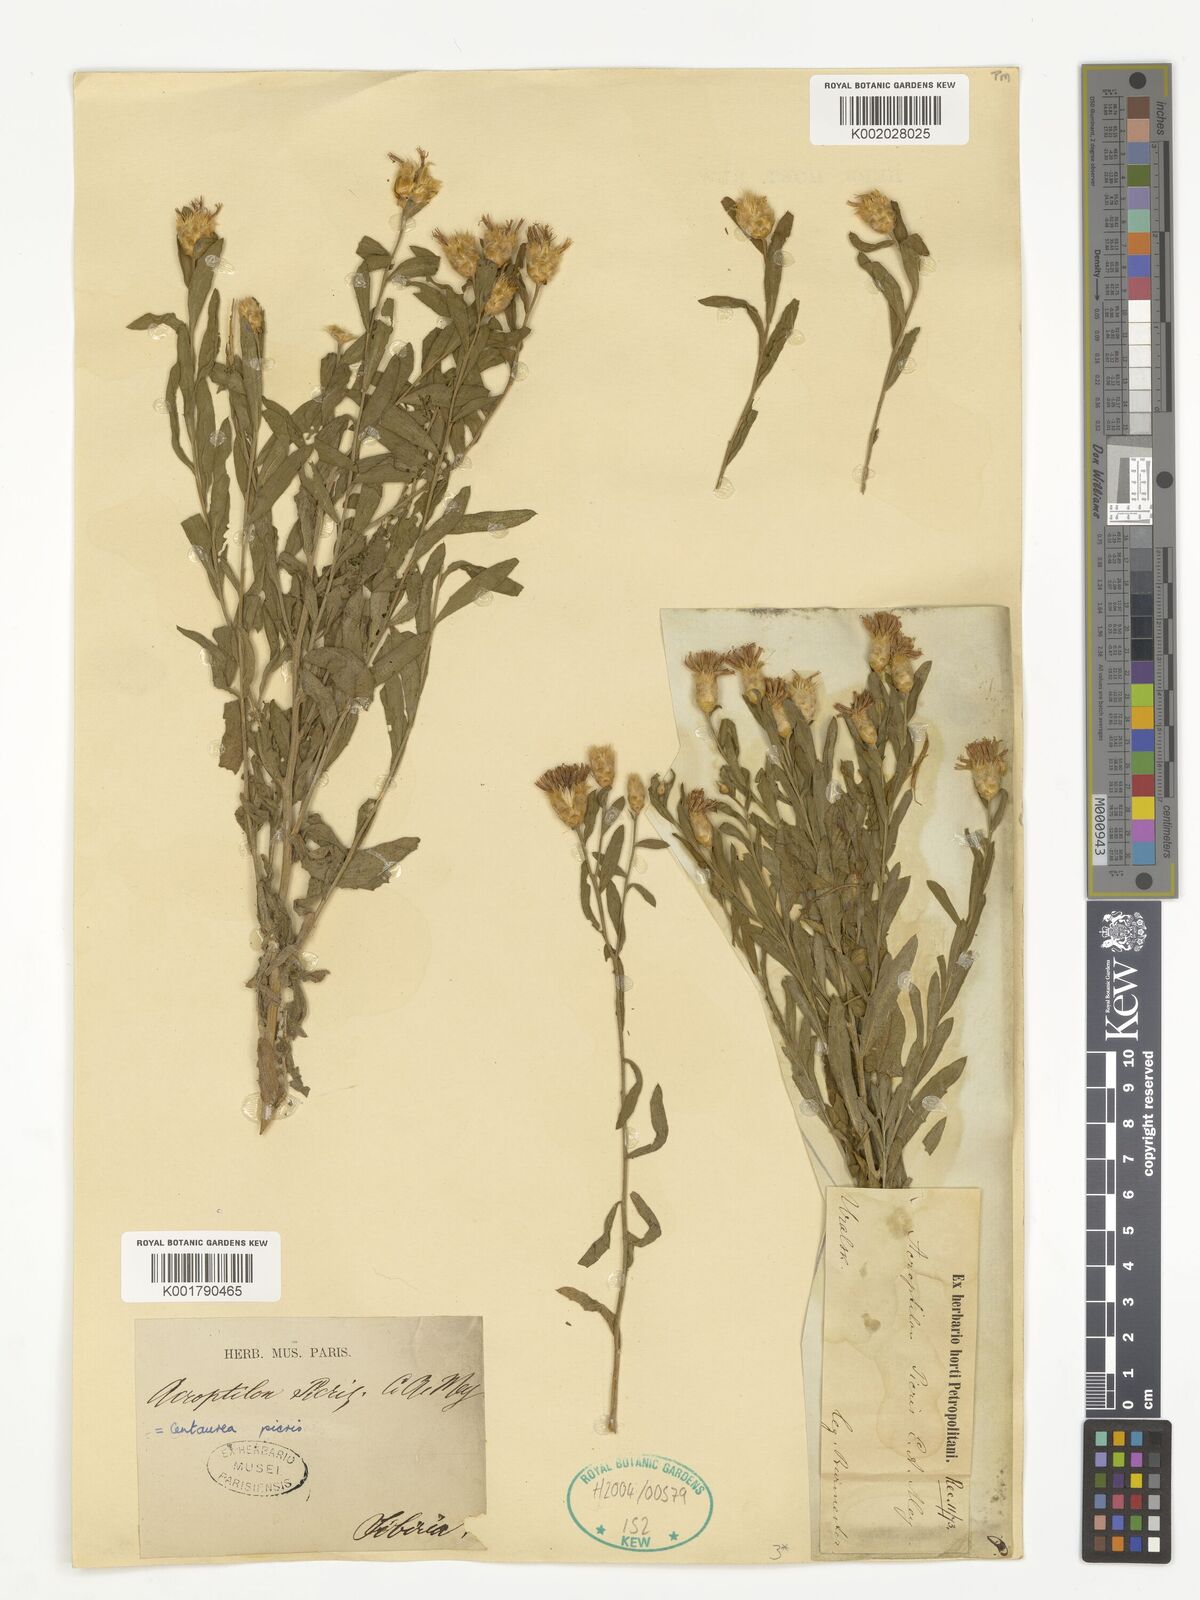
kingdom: Plantae
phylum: Tracheophyta
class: Magnoliopsida
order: Asterales
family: Asteraceae
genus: Leuzea
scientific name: Leuzea repens
